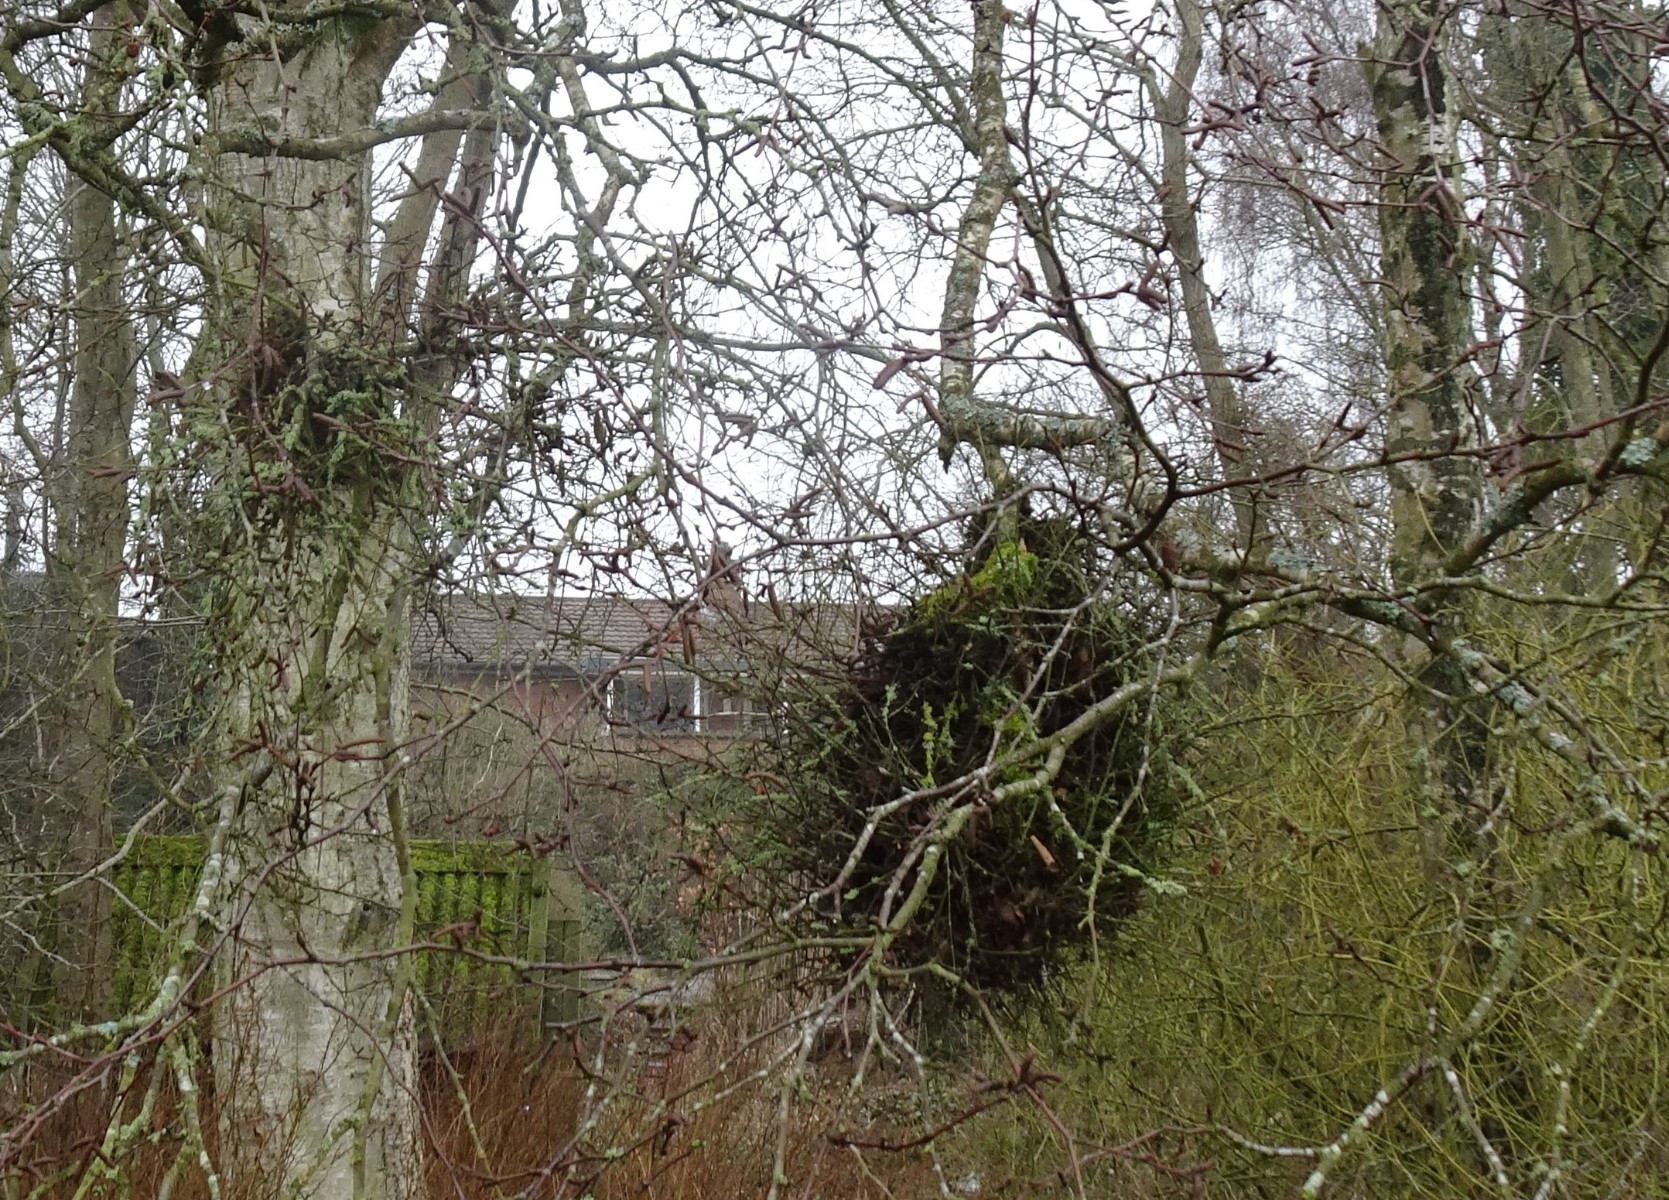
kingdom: Fungi
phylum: Ascomycota
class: Taphrinomycetes
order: Taphrinales
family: Taphrinaceae
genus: Taphrina
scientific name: Taphrina betulina
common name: hekse-sækdug
